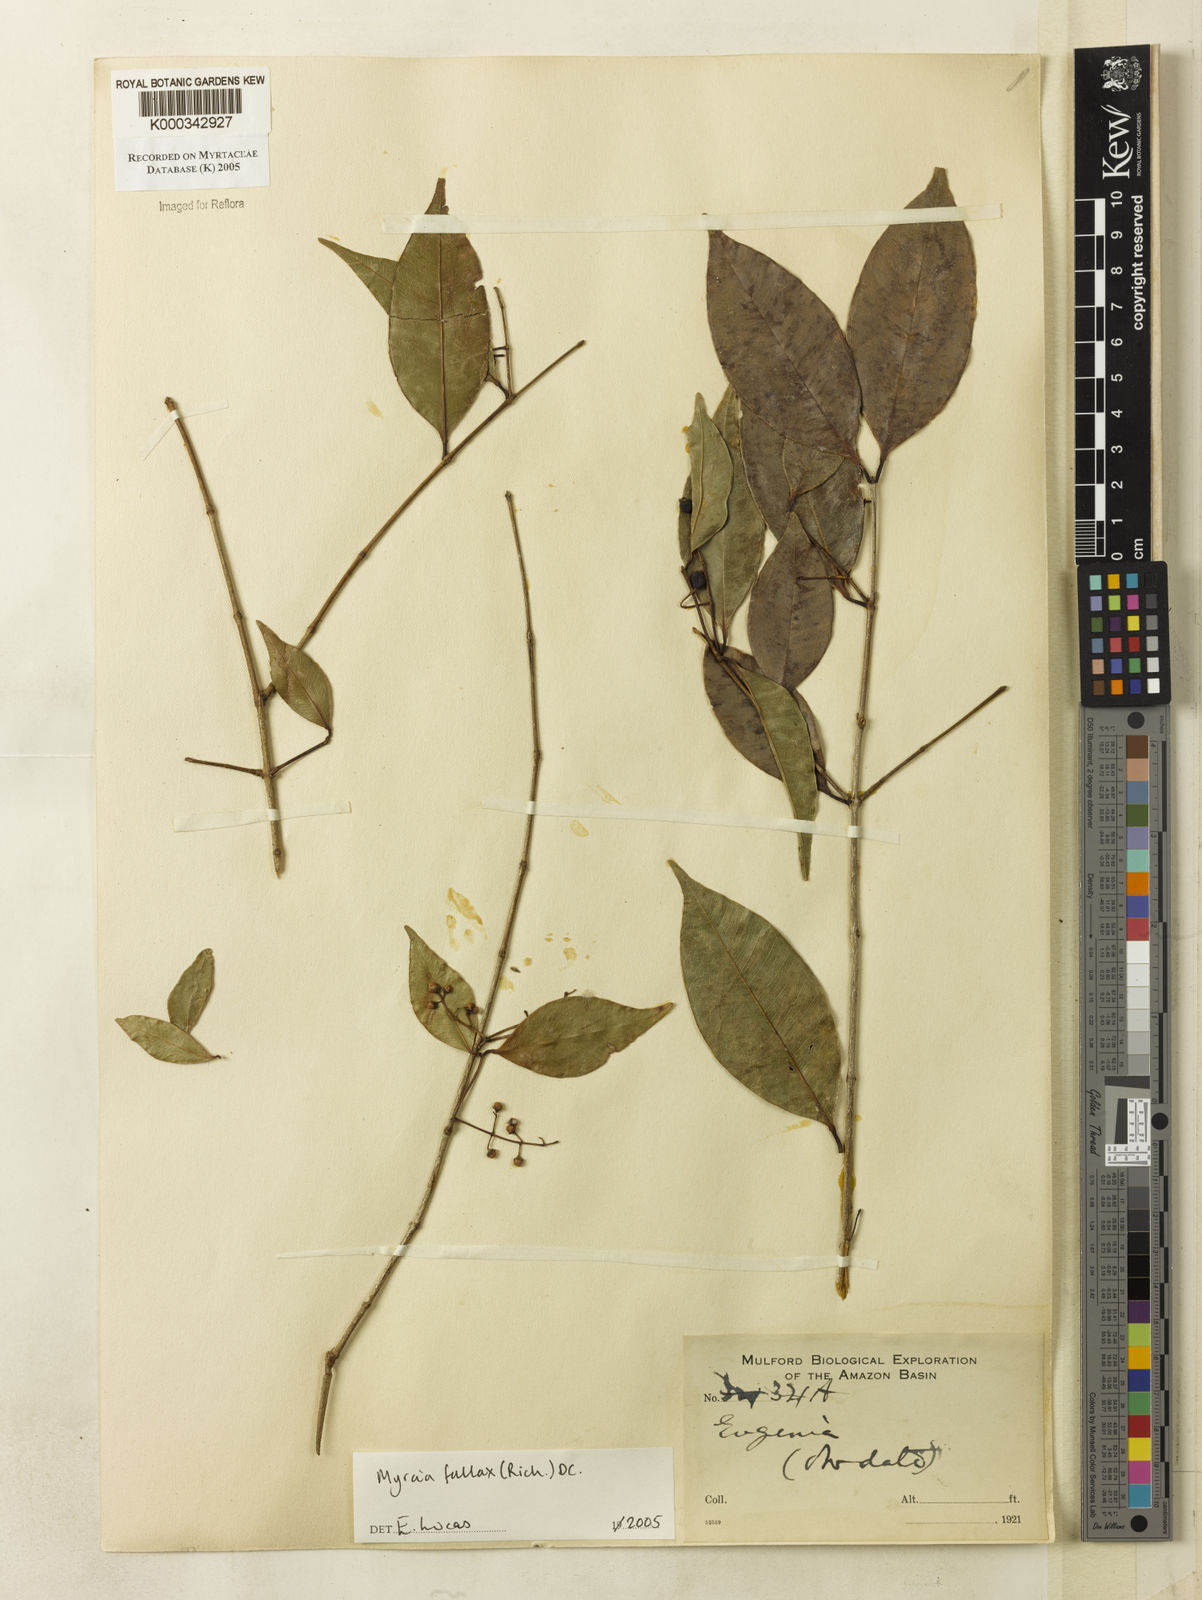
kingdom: Plantae
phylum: Tracheophyta
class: Magnoliopsida
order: Myrtales
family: Myrtaceae
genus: Myrcia
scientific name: Myrcia splendens
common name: Surinam cherry
